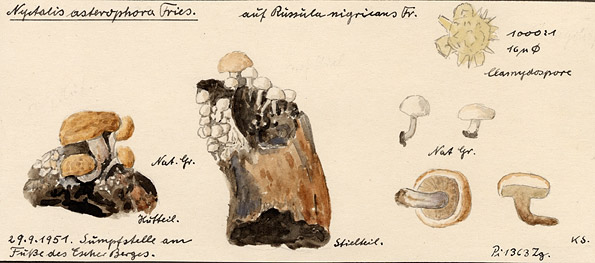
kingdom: Fungi
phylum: Basidiomycota
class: Agaricomycetes
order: Agaricales
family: Lyophyllaceae
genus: Asterophora
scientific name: Asterophora lycoperdoides
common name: Pick-a-back toadstool
